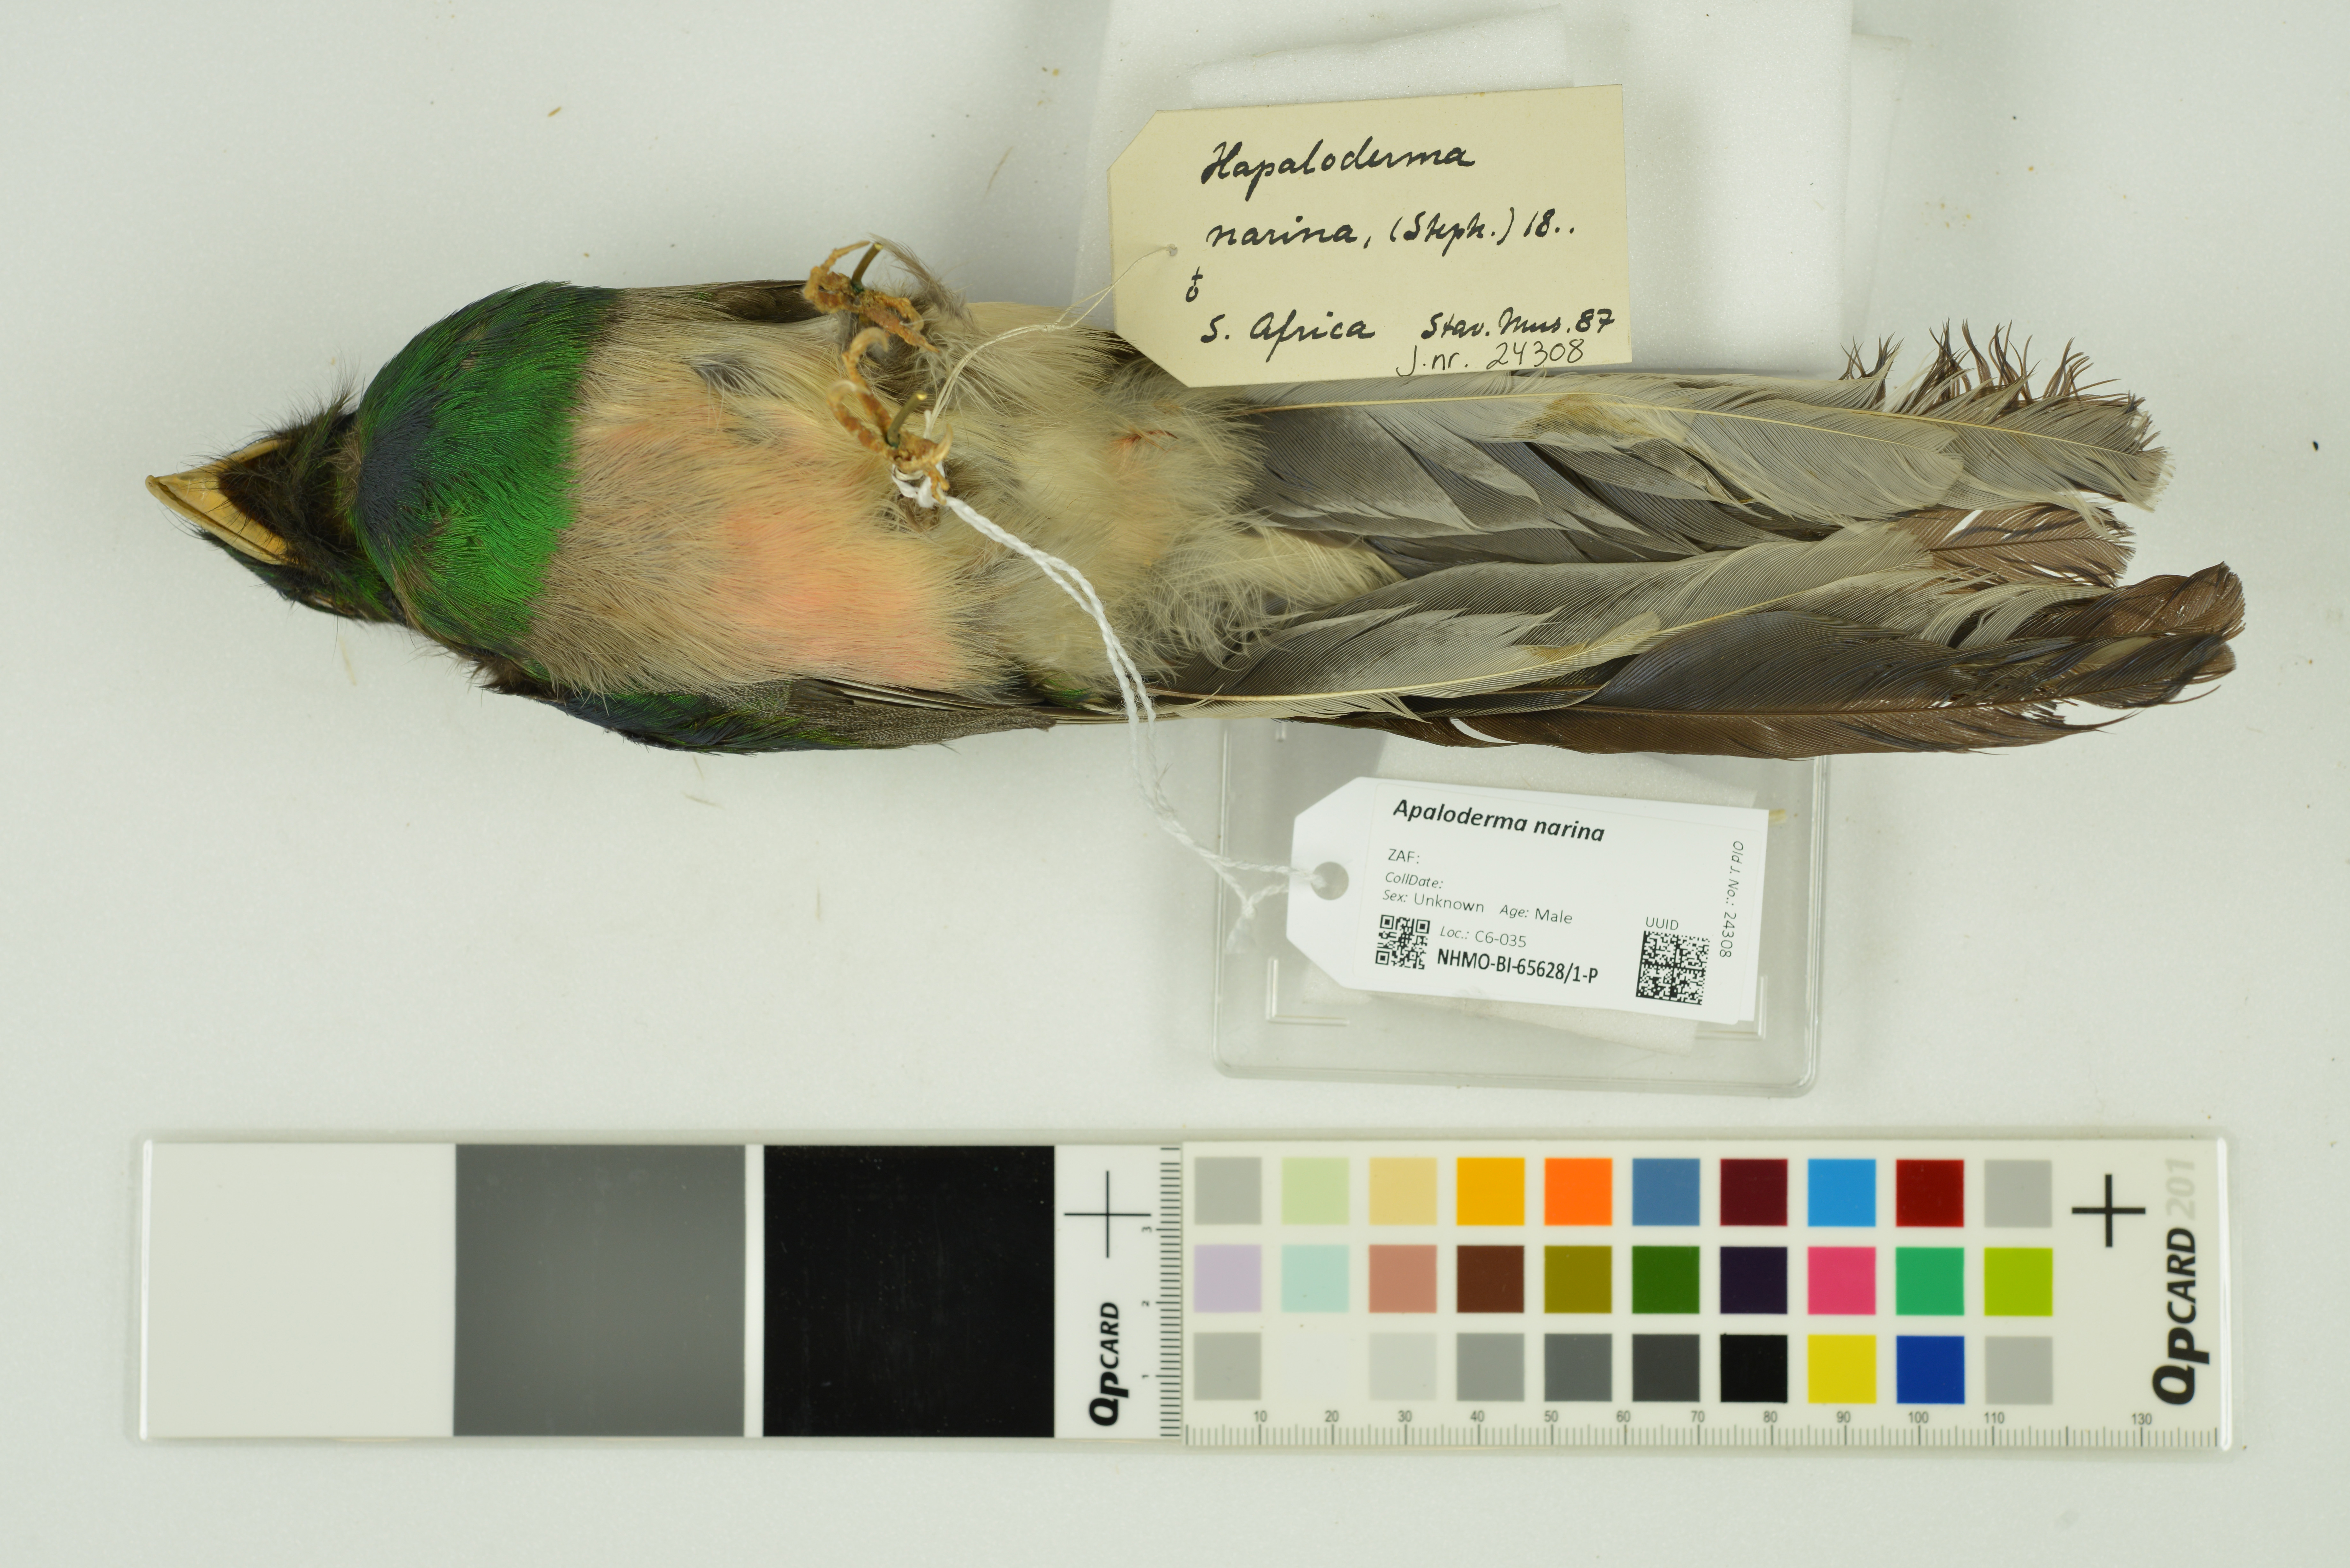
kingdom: Animalia
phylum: Chordata
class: Aves
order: Trogoniformes
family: Trogonidae
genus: Apaloderma
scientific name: Apaloderma narina
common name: Narina trogon
